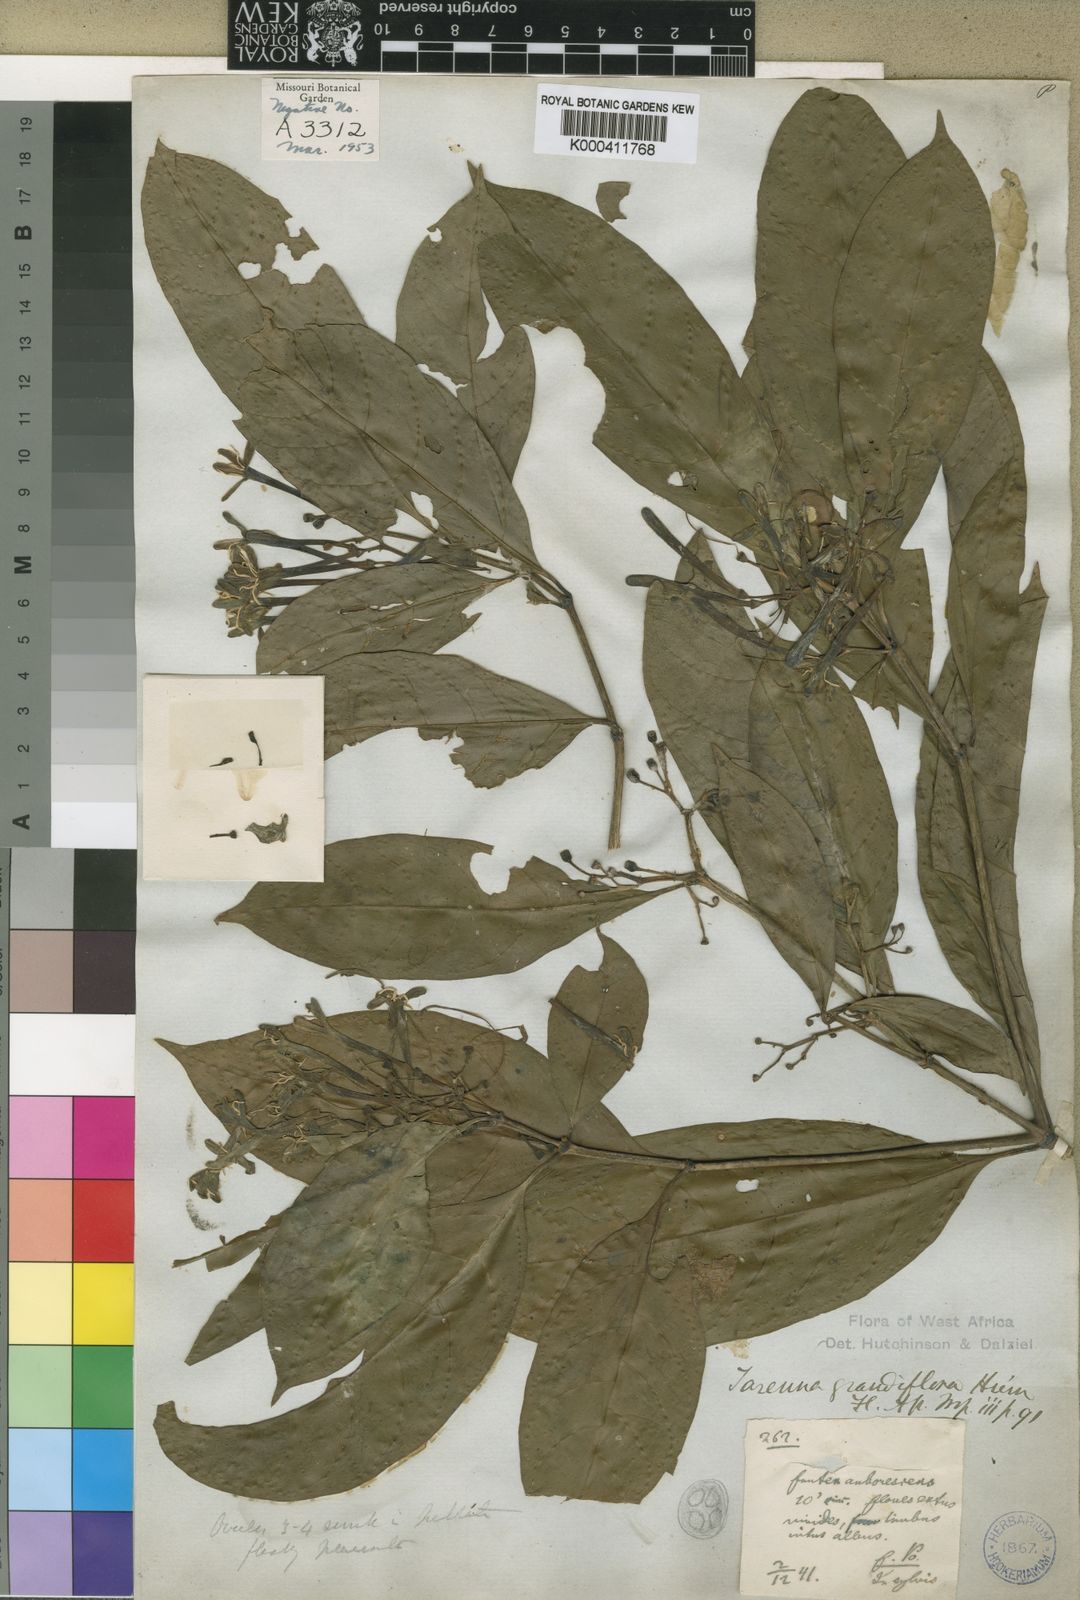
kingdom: Plantae
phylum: Tracheophyta
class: Magnoliopsida
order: Gentianales
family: Rubiaceae
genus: Tarenna
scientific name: Tarenna grandiflora
